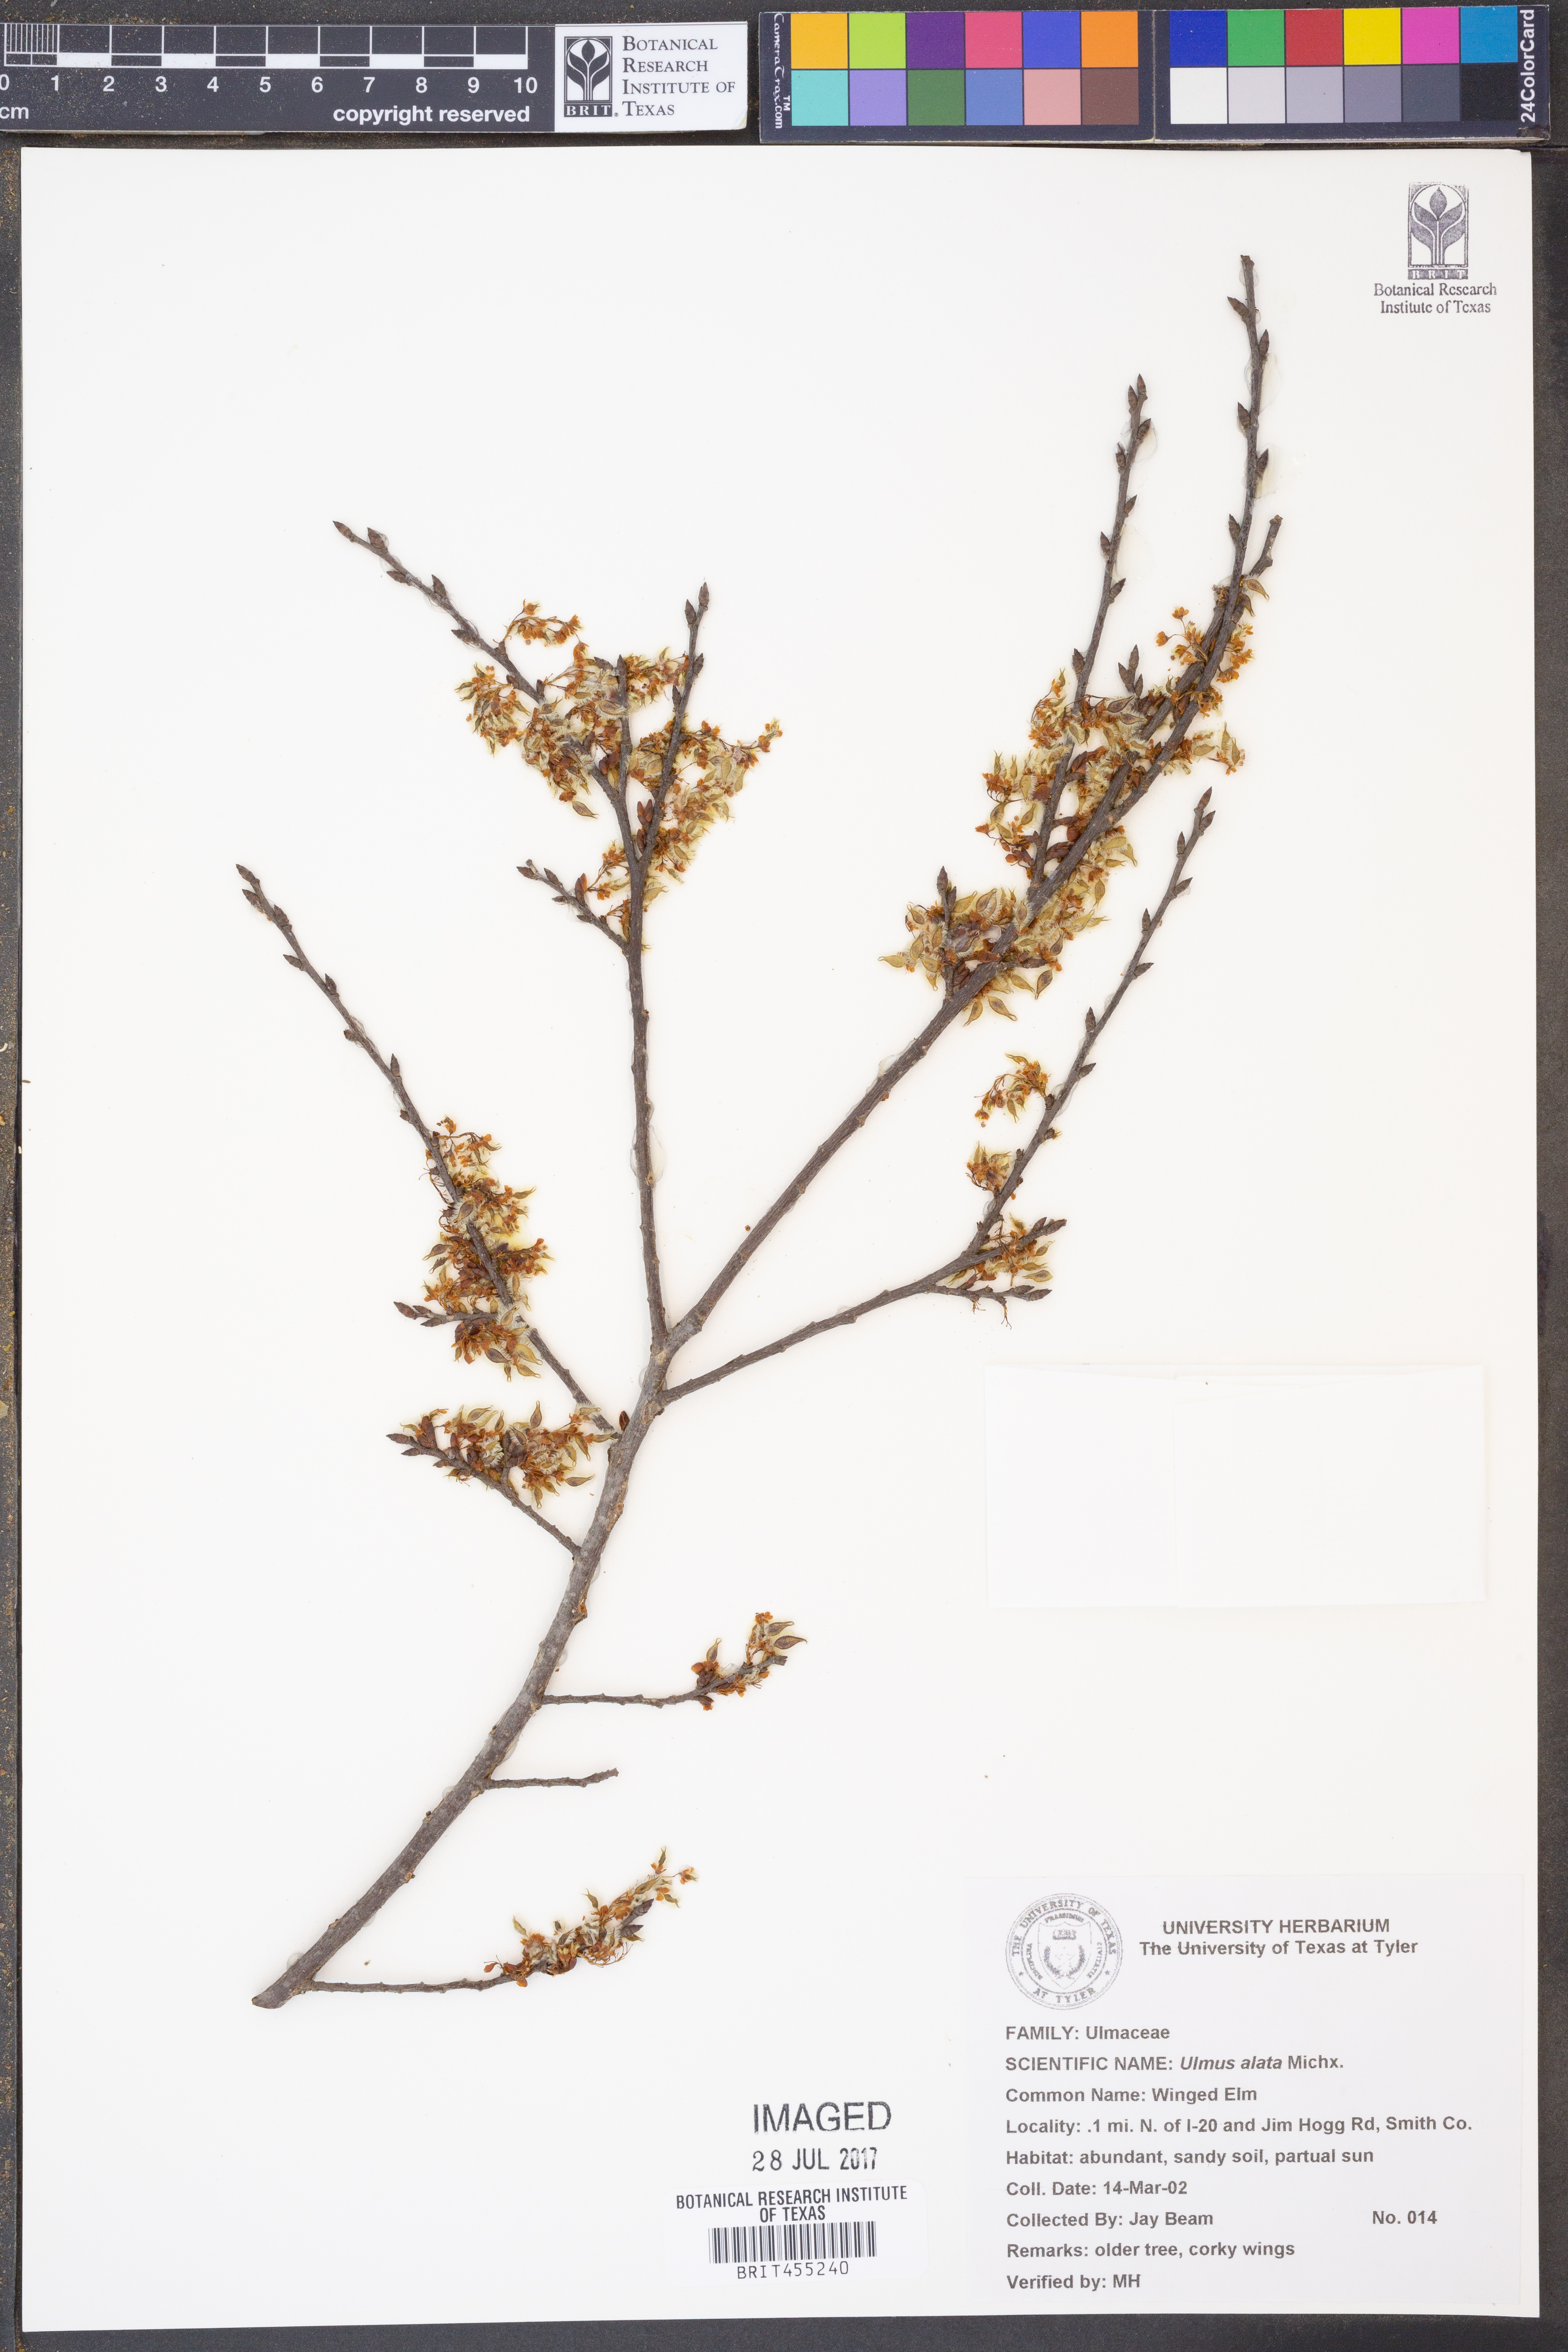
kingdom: Plantae
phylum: Tracheophyta
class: Magnoliopsida
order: Rosales
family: Ulmaceae
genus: Ulmus
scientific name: Ulmus alata
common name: Winged elm
